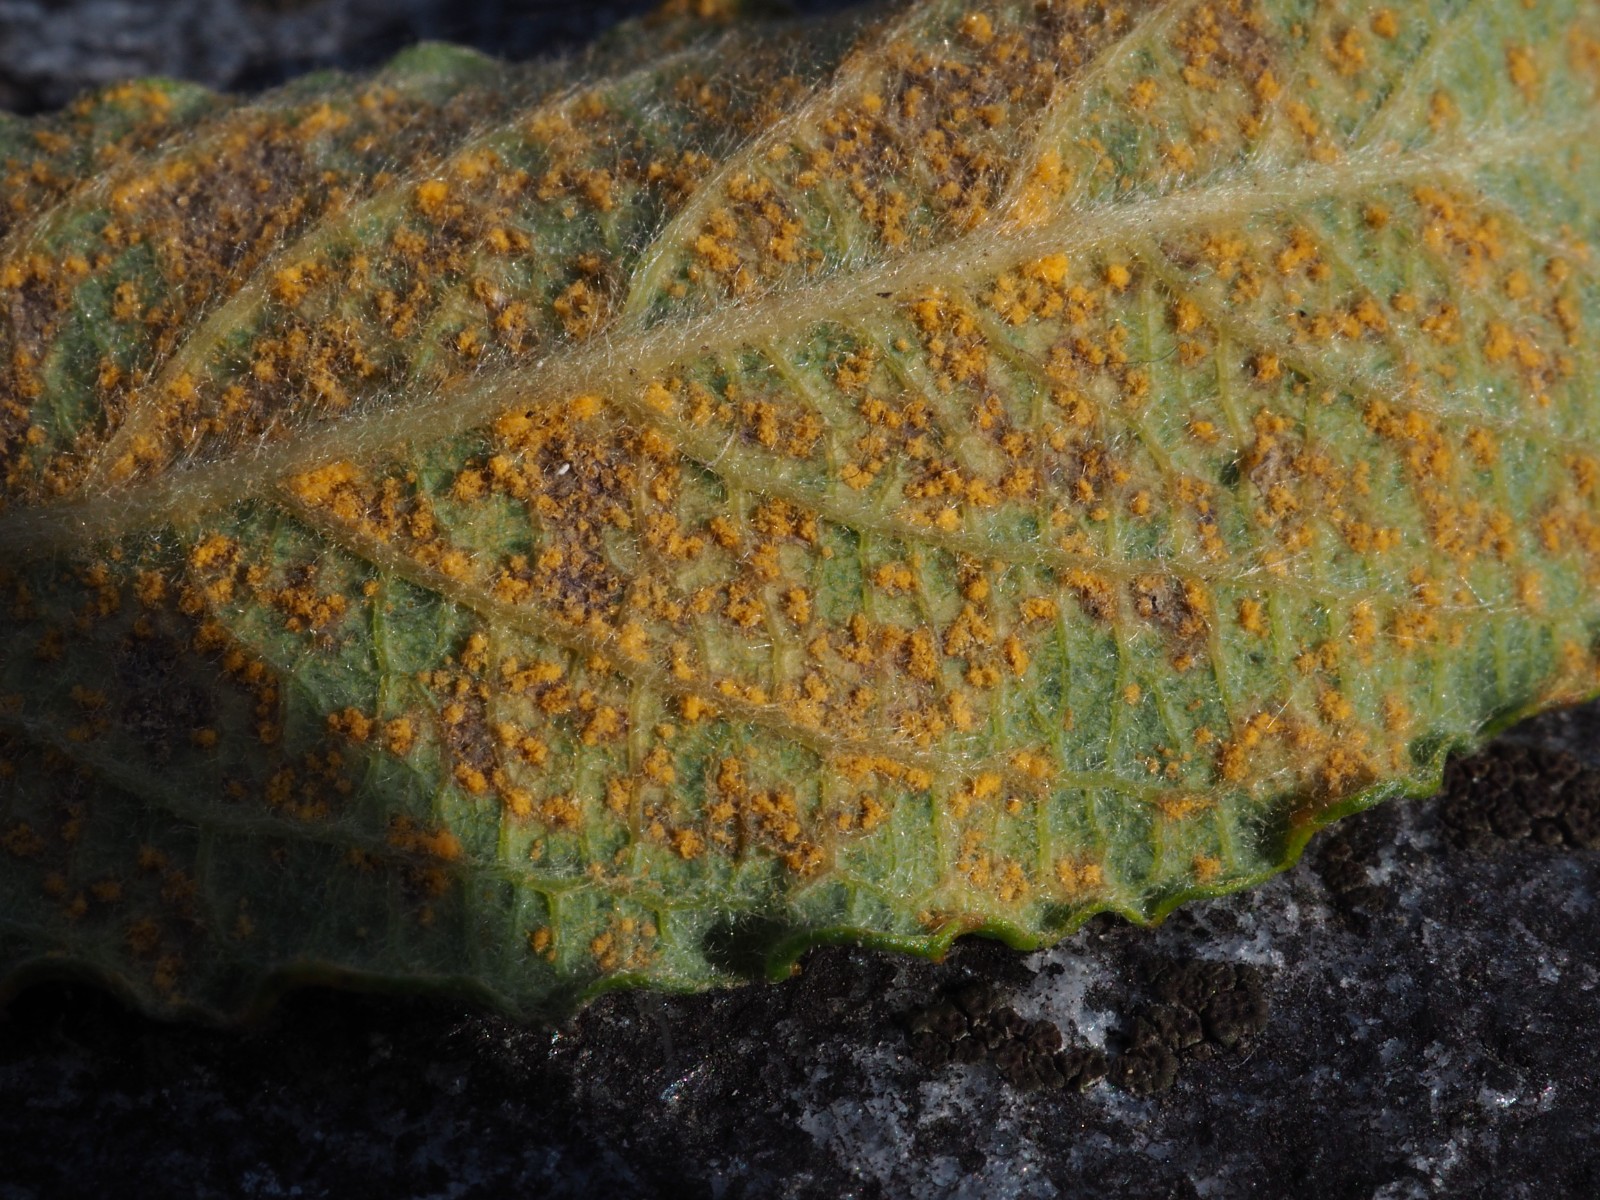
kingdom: Fungi
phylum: Basidiomycota
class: Pucciniomycetes
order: Pucciniales
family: Melampsoraceae
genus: Melampsora
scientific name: Melampsora epitea
